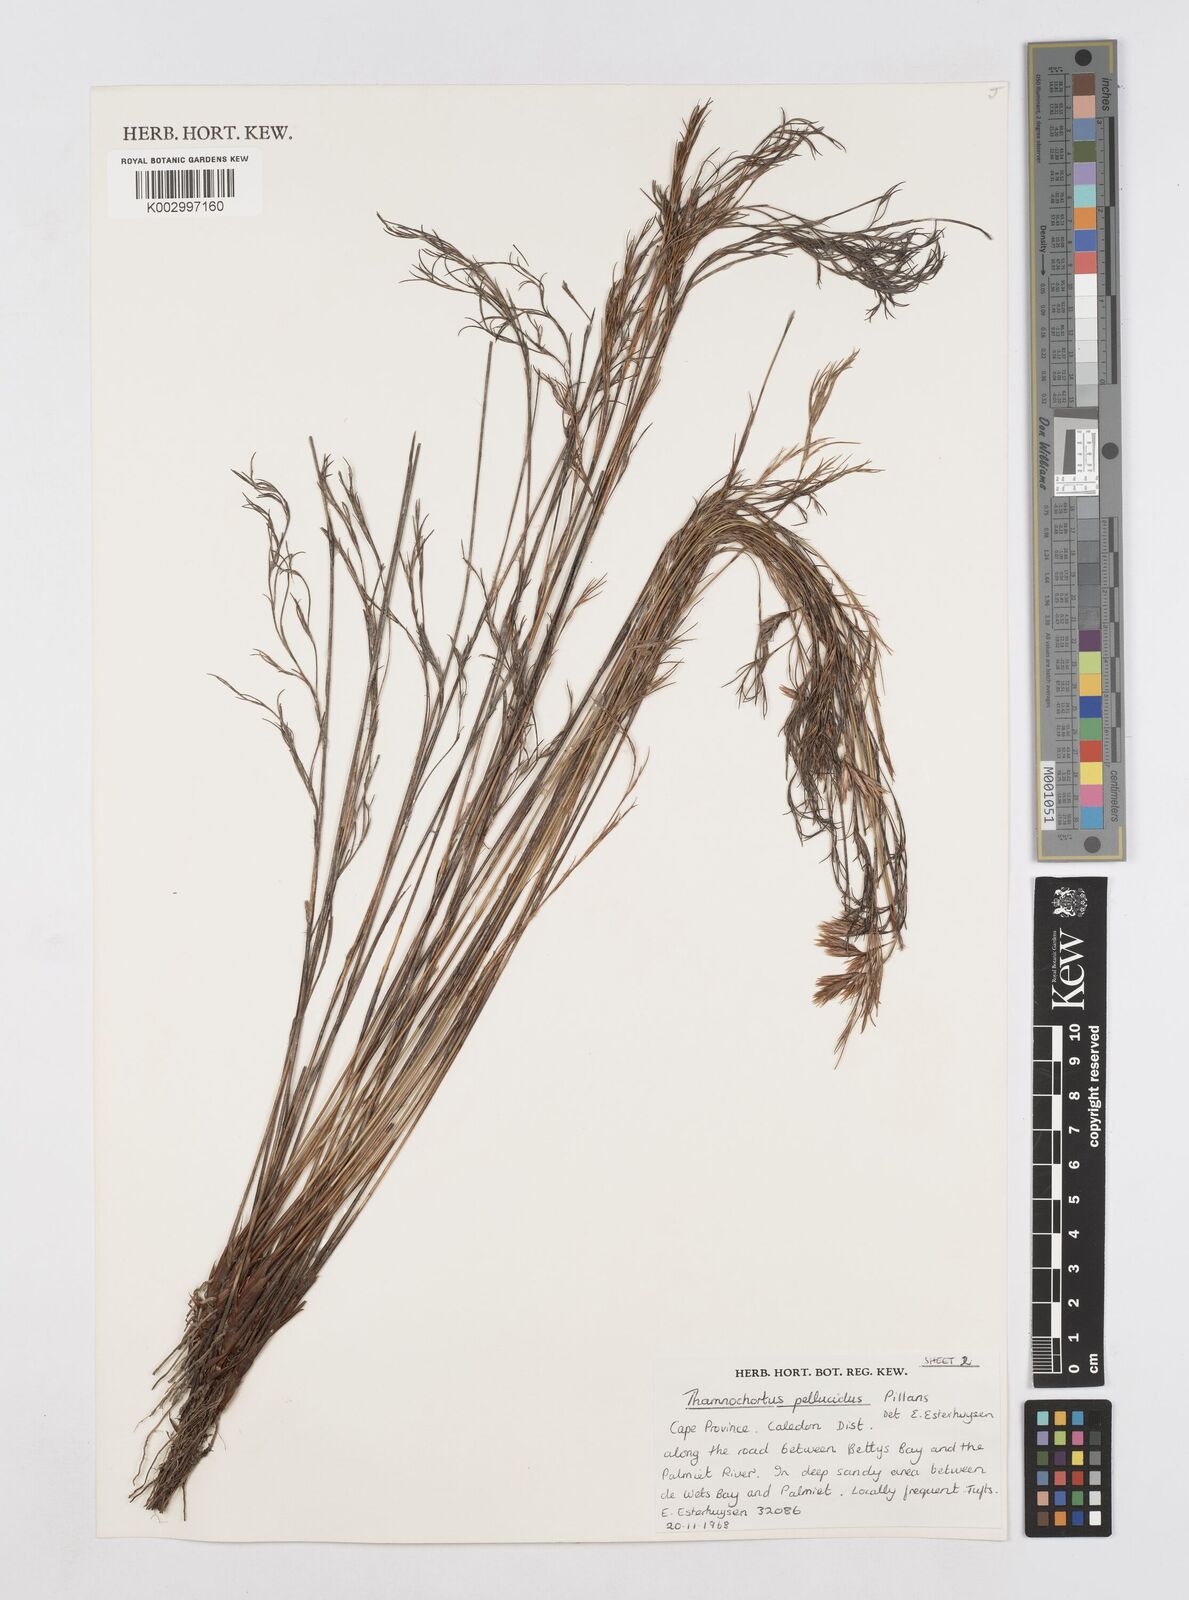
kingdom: Plantae
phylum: Tracheophyta
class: Liliopsida
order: Poales
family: Restionaceae
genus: Thamnochortus
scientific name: Thamnochortus pellucidus
